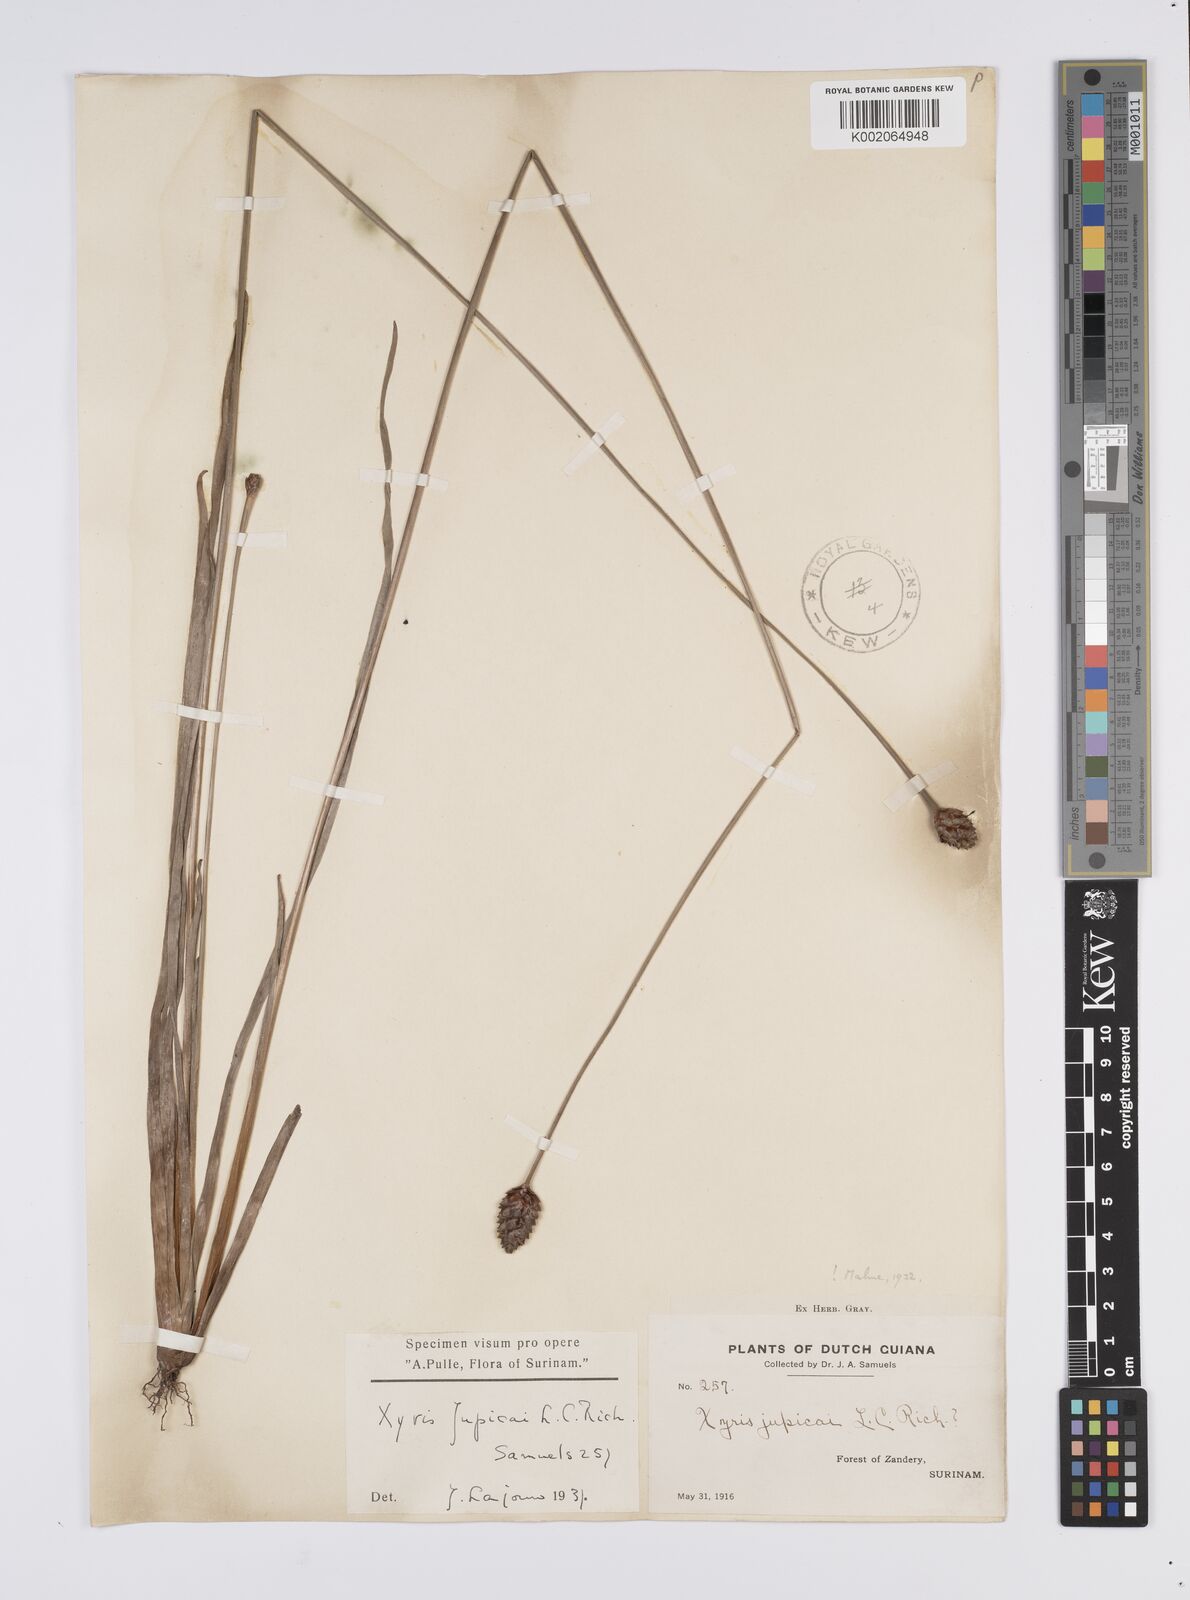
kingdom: Plantae
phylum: Tracheophyta
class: Liliopsida
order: Poales
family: Xyridaceae
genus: Xyris
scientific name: Xyris jupicai
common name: Richard's yelloweyed grass
